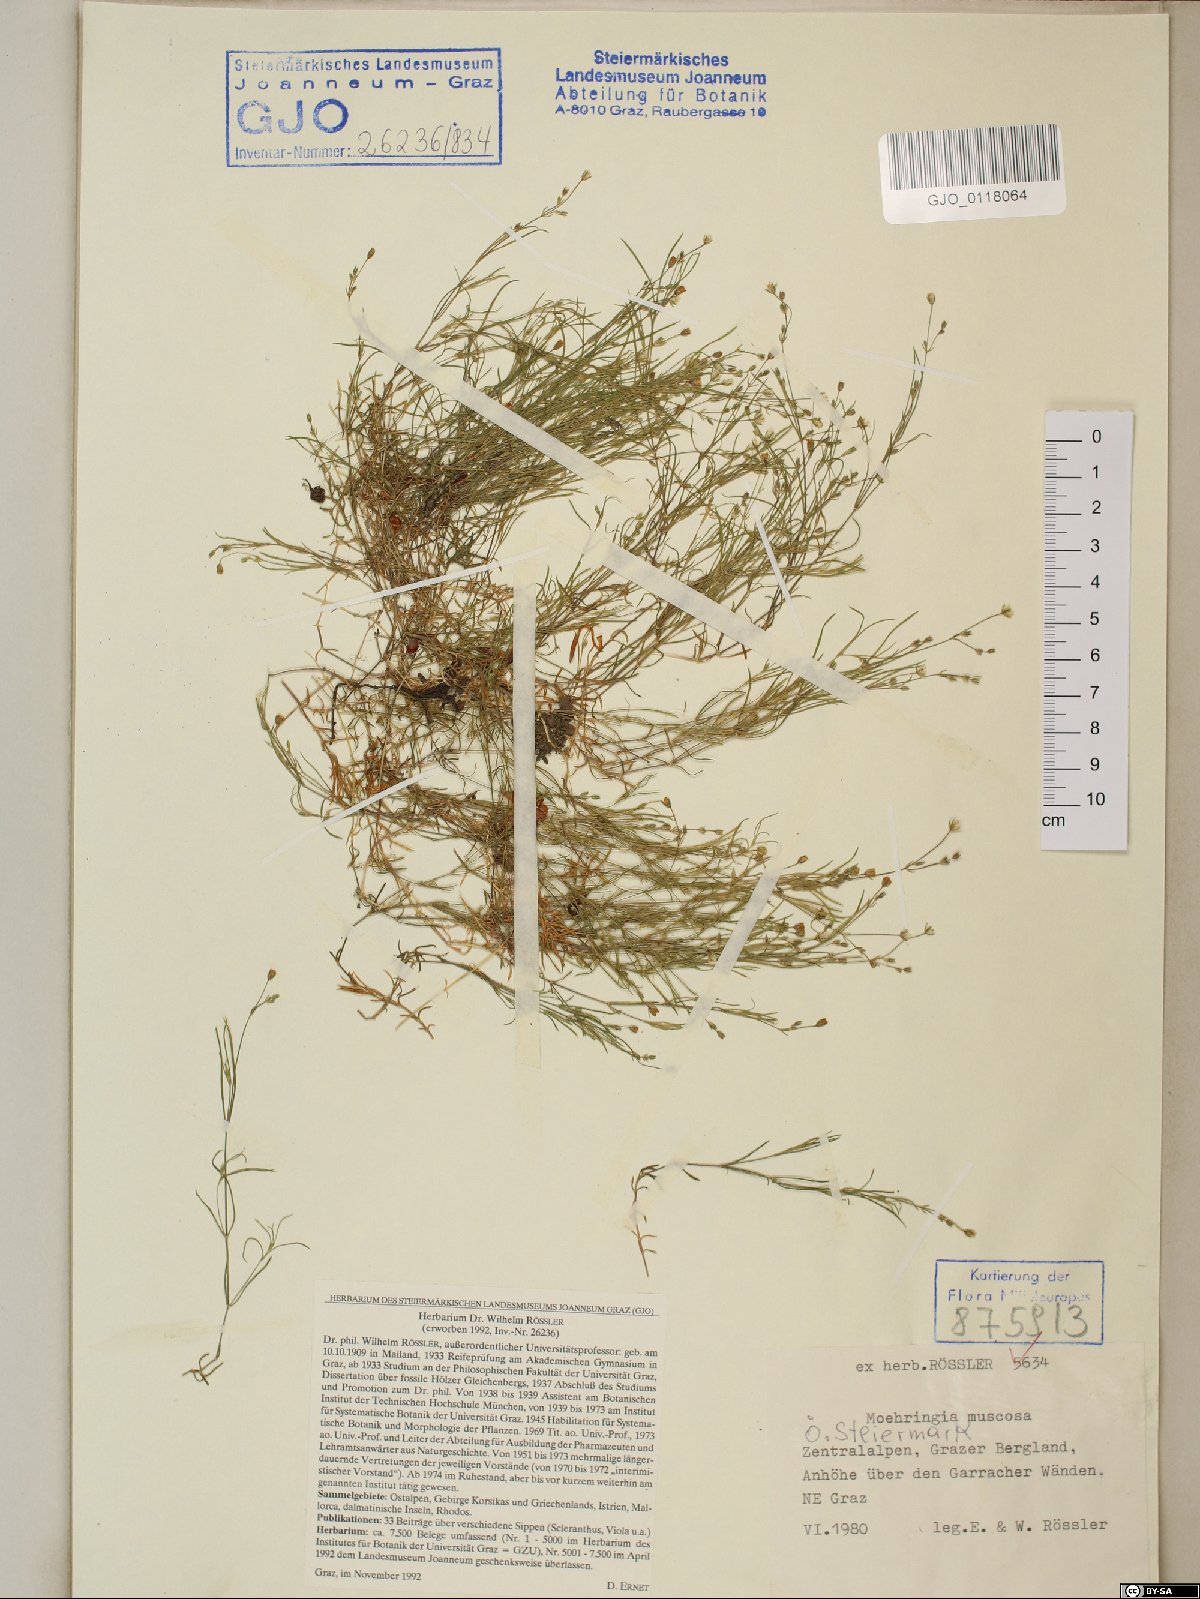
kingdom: Plantae
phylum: Tracheophyta
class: Magnoliopsida
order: Caryophyllales
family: Caryophyllaceae
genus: Moehringia
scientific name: Moehringia muscosa
